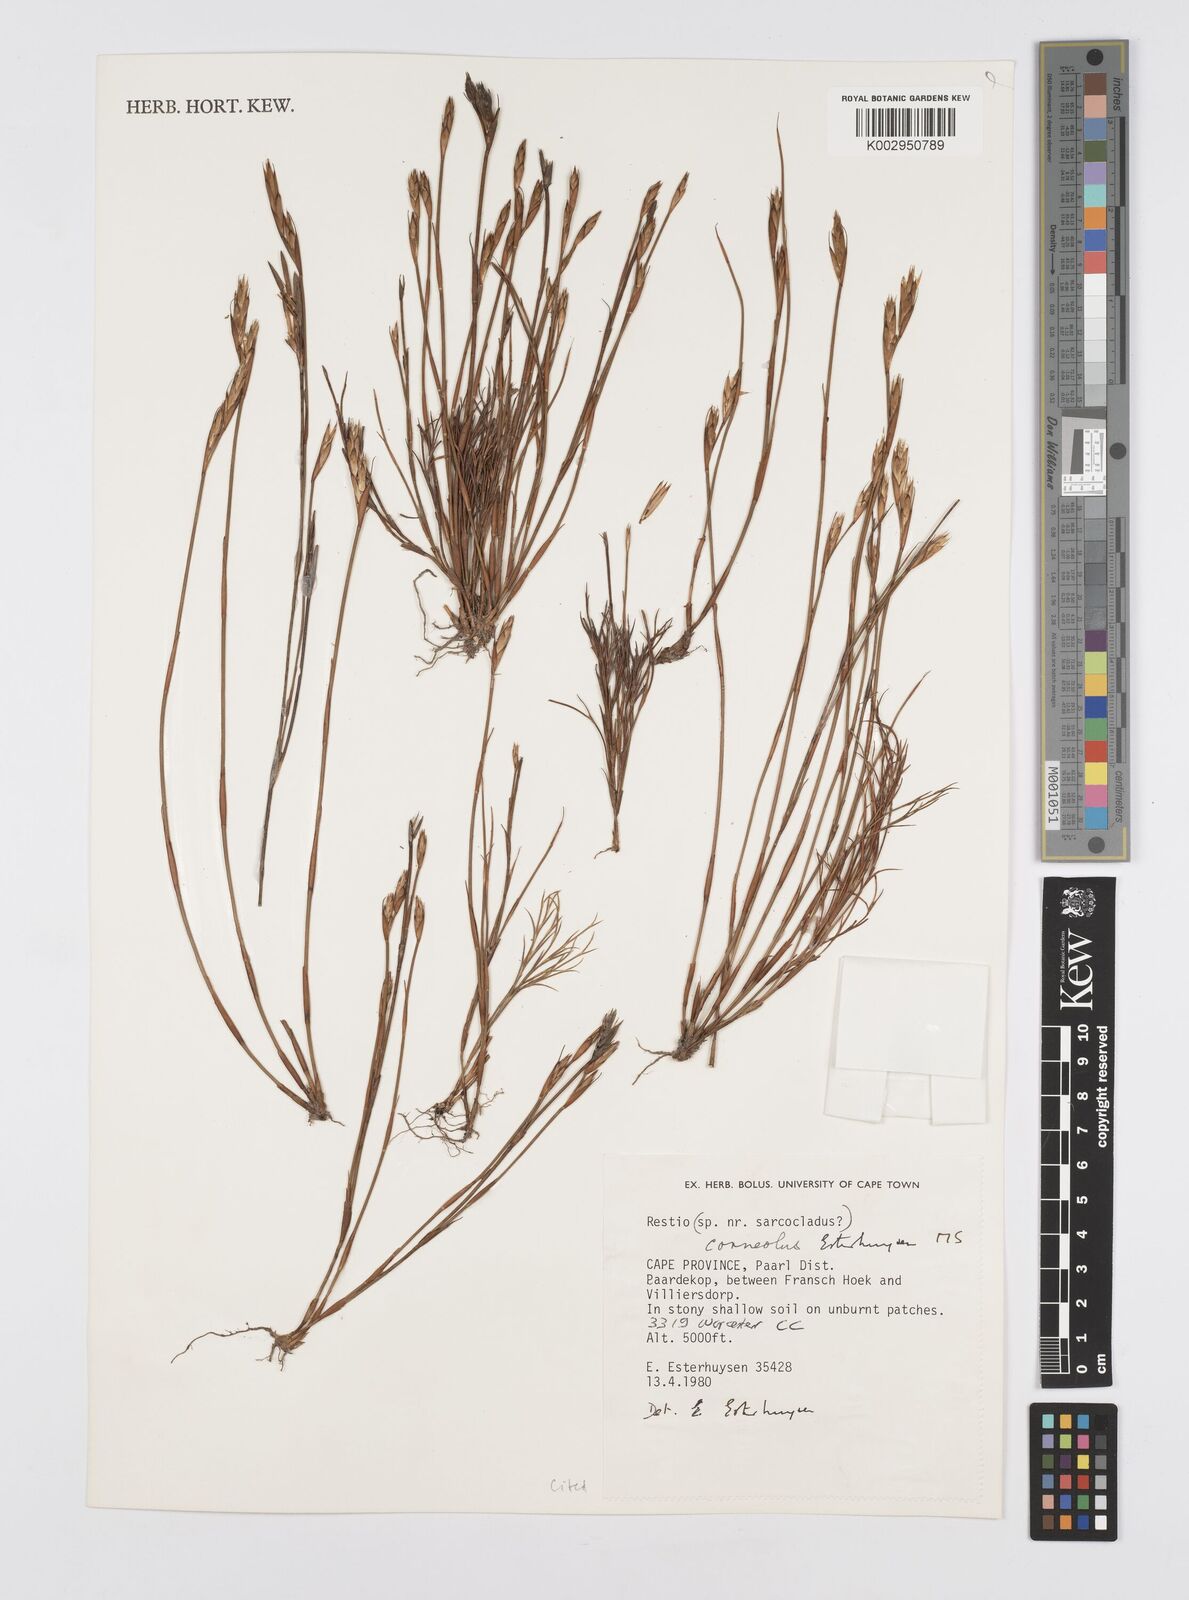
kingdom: Plantae
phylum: Tracheophyta
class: Liliopsida
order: Poales
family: Restionaceae
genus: Restio
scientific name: Restio corneolus
